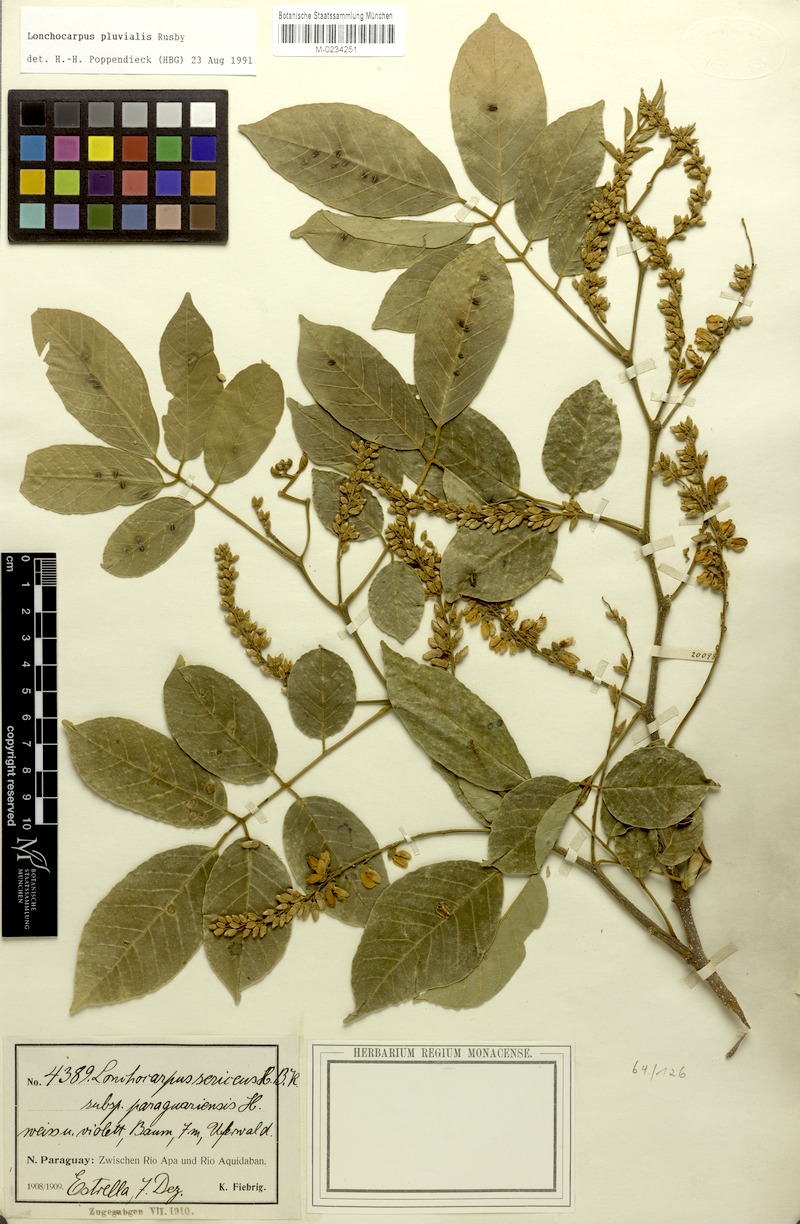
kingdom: Plantae
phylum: Tracheophyta
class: Magnoliopsida
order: Fabales
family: Fabaceae
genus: Lonchocarpus
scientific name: Lonchocarpus pluvialis
